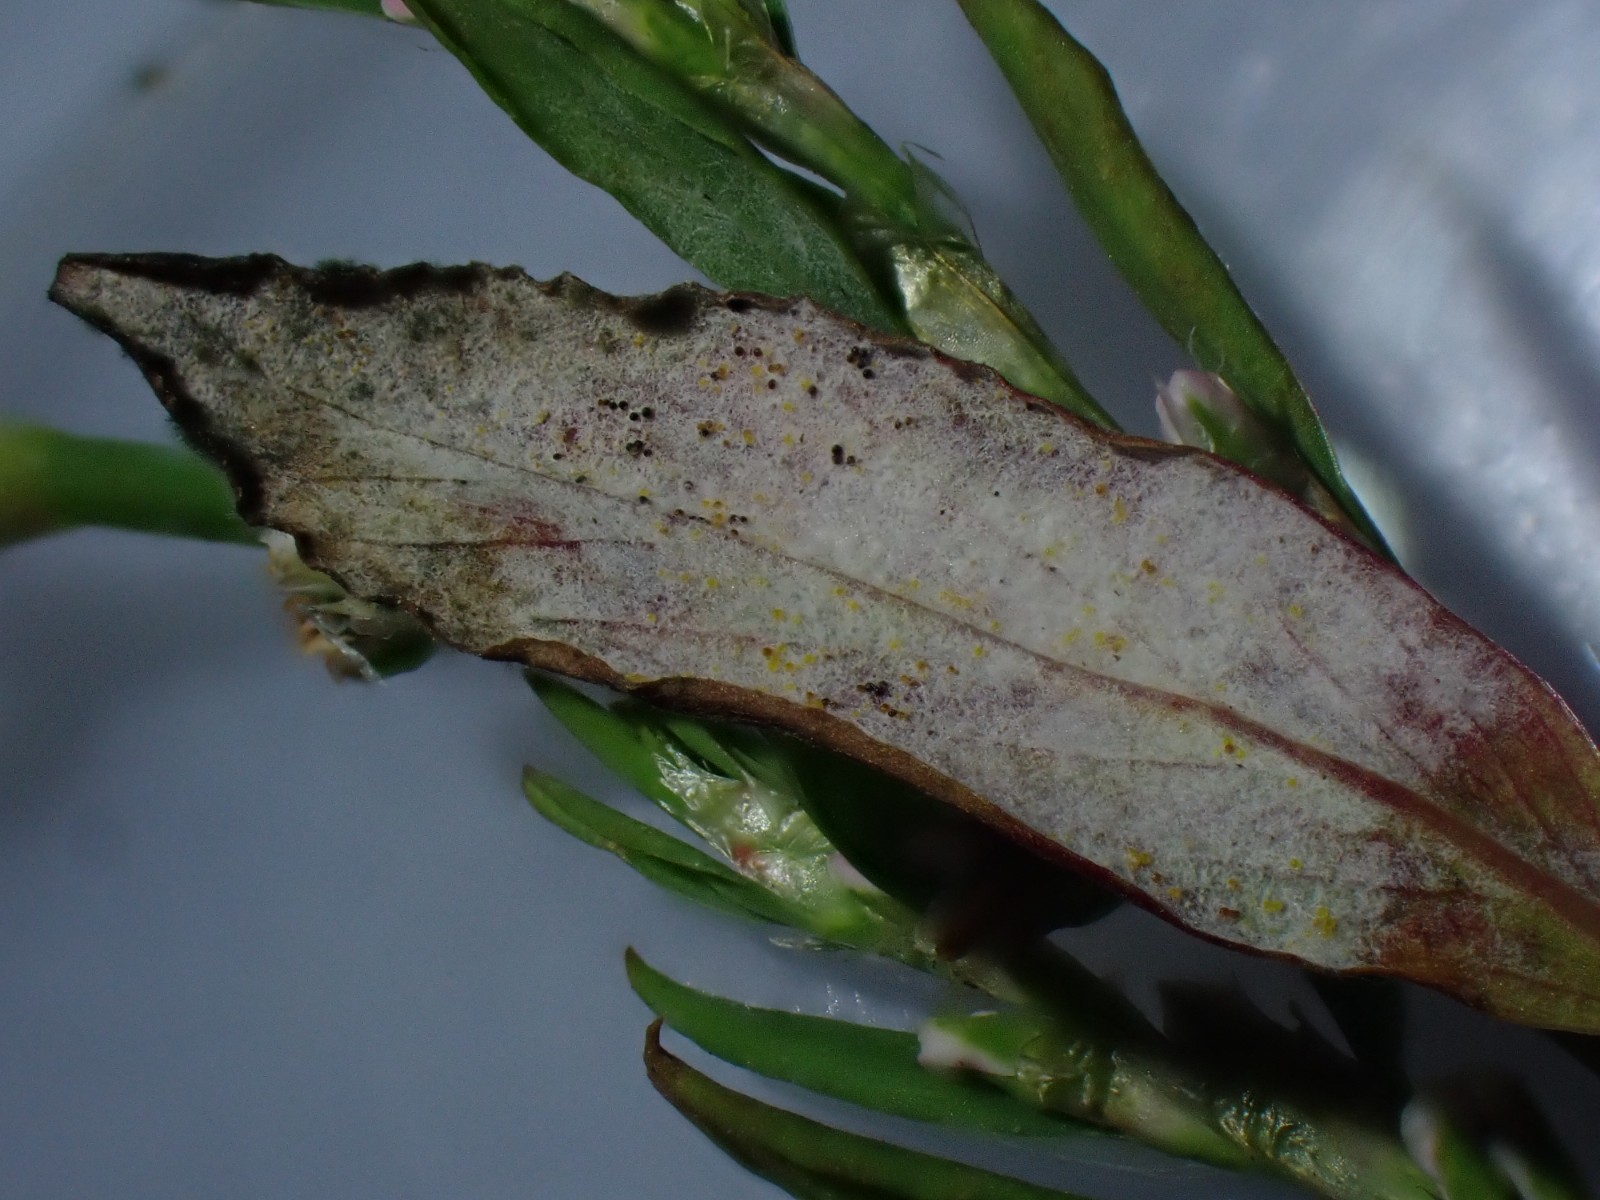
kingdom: Fungi
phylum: Ascomycota
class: Leotiomycetes
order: Helotiales
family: Erysiphaceae
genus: Erysiphe
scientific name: Erysiphe polygoni
